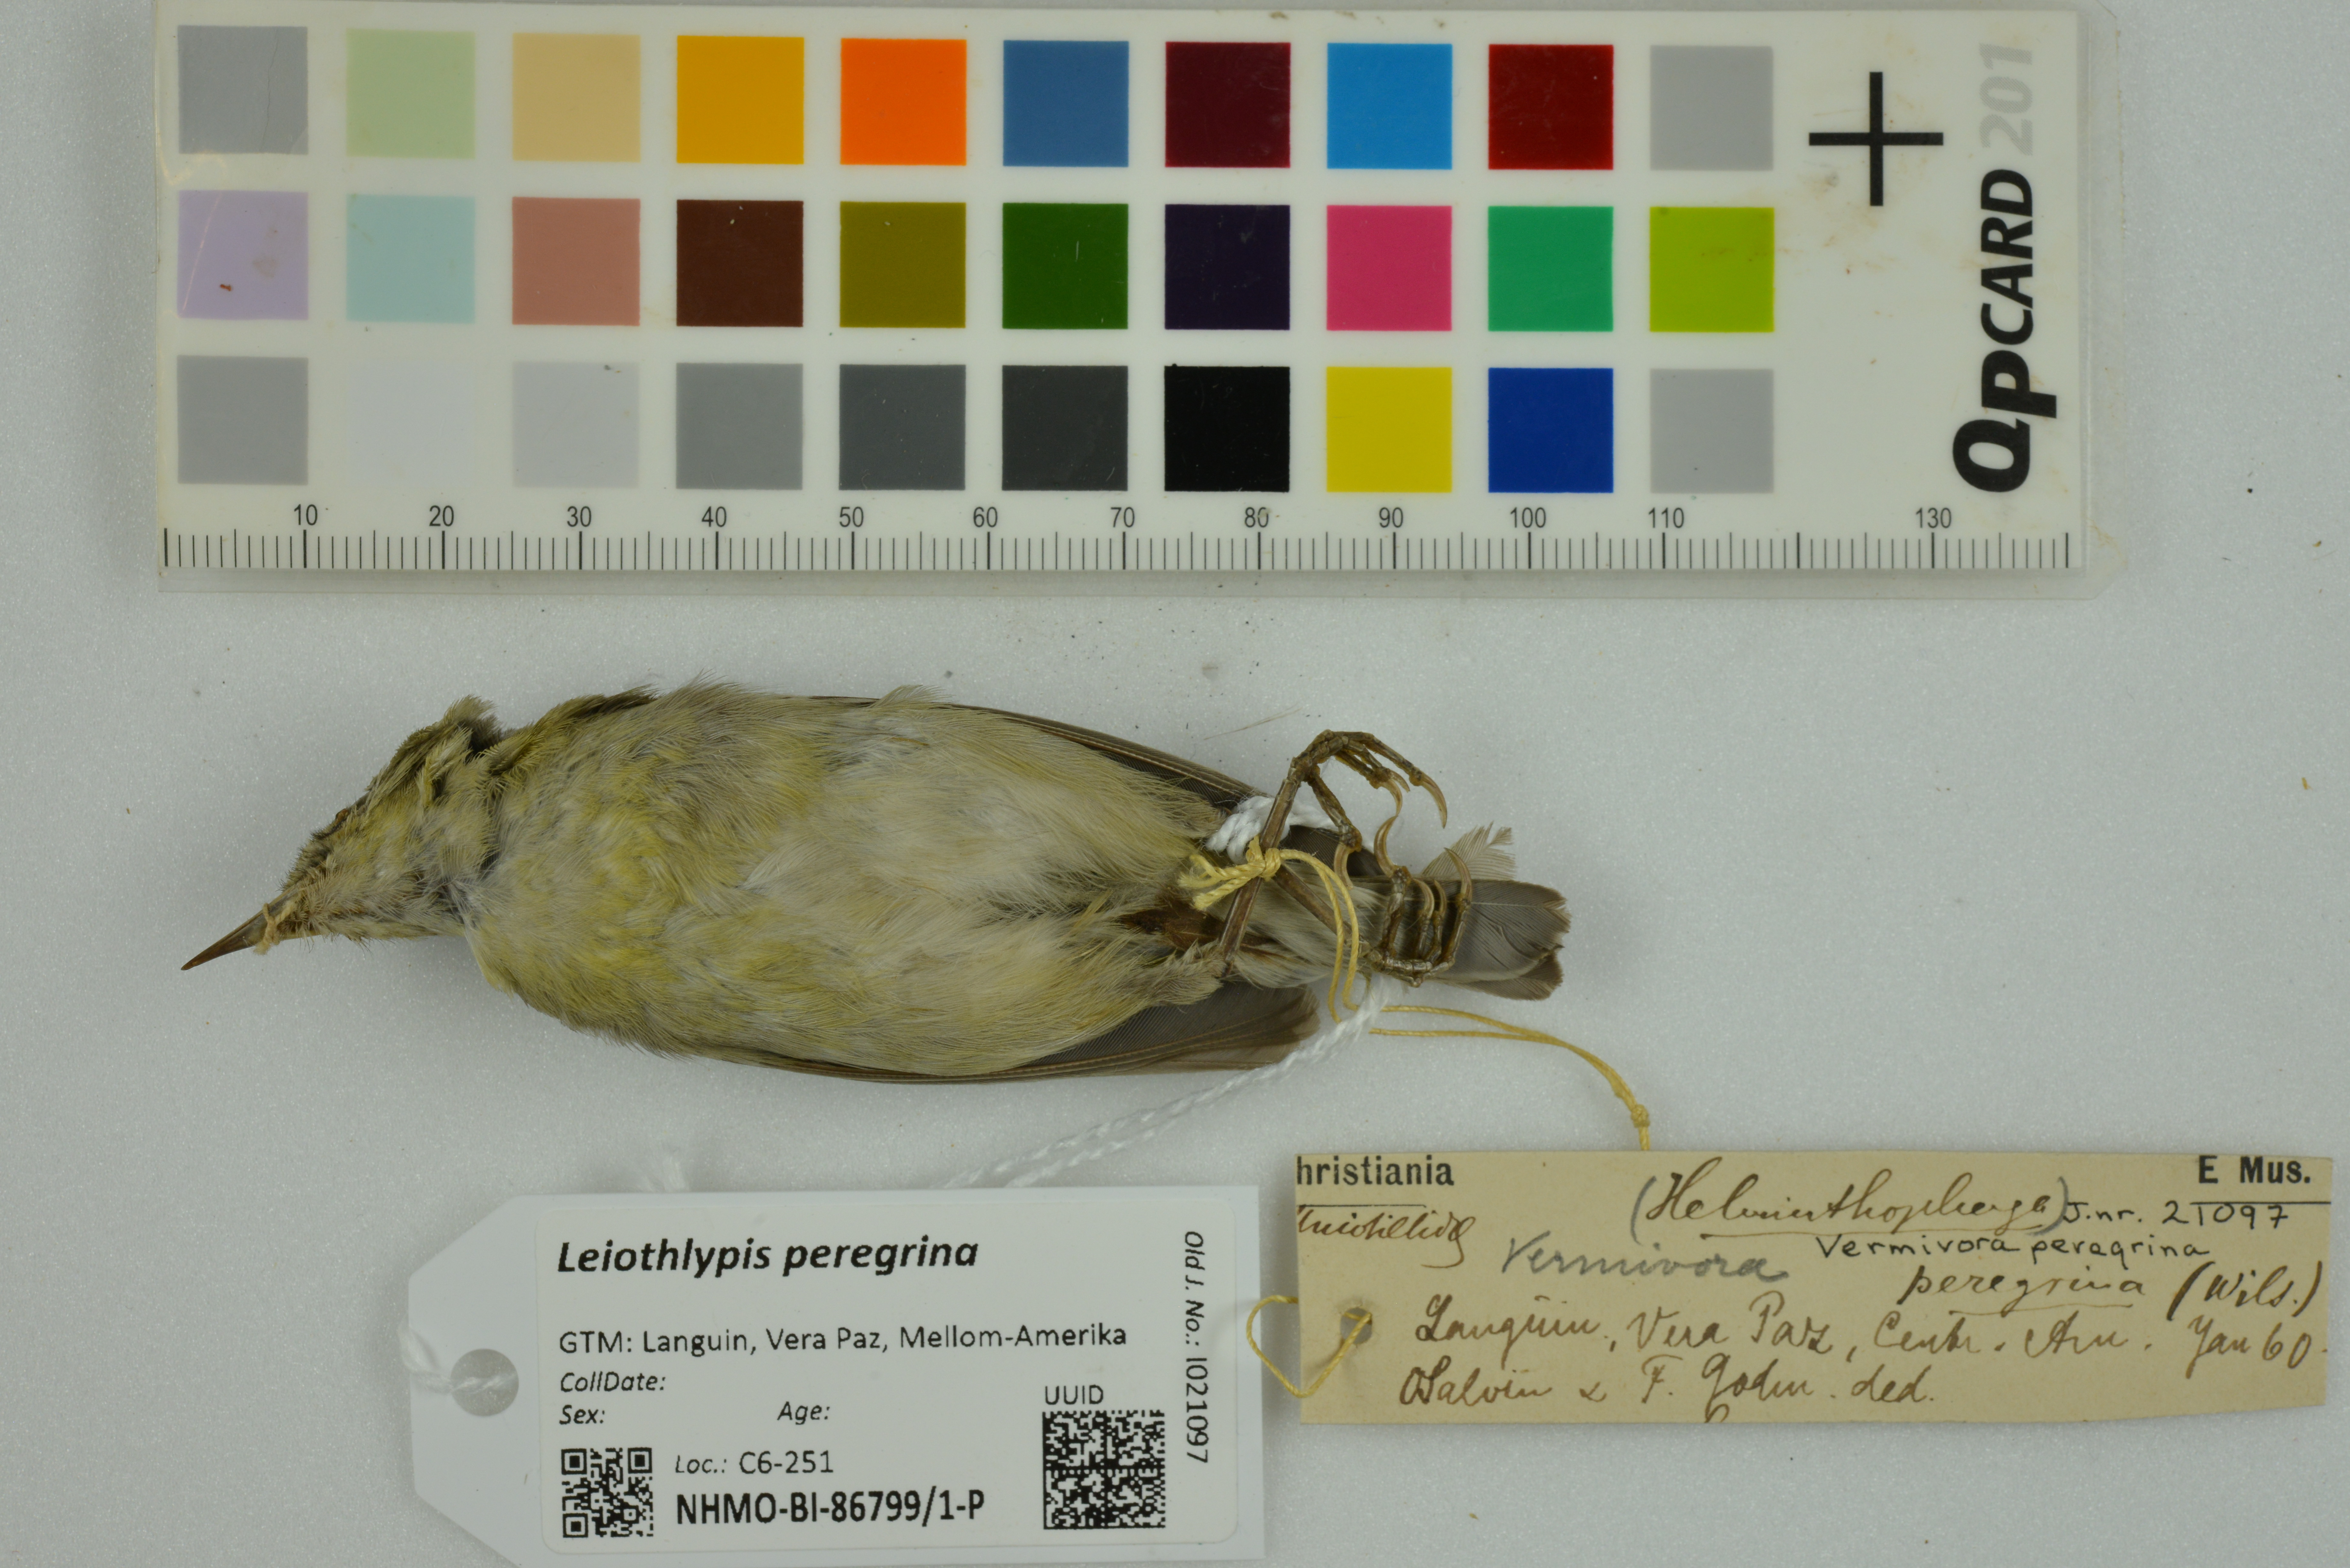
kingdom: Animalia
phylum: Chordata
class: Aves
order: Passeriformes
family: Parulidae
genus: Leiothlypis
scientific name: Leiothlypis peregrina
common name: Tennessee warbler
